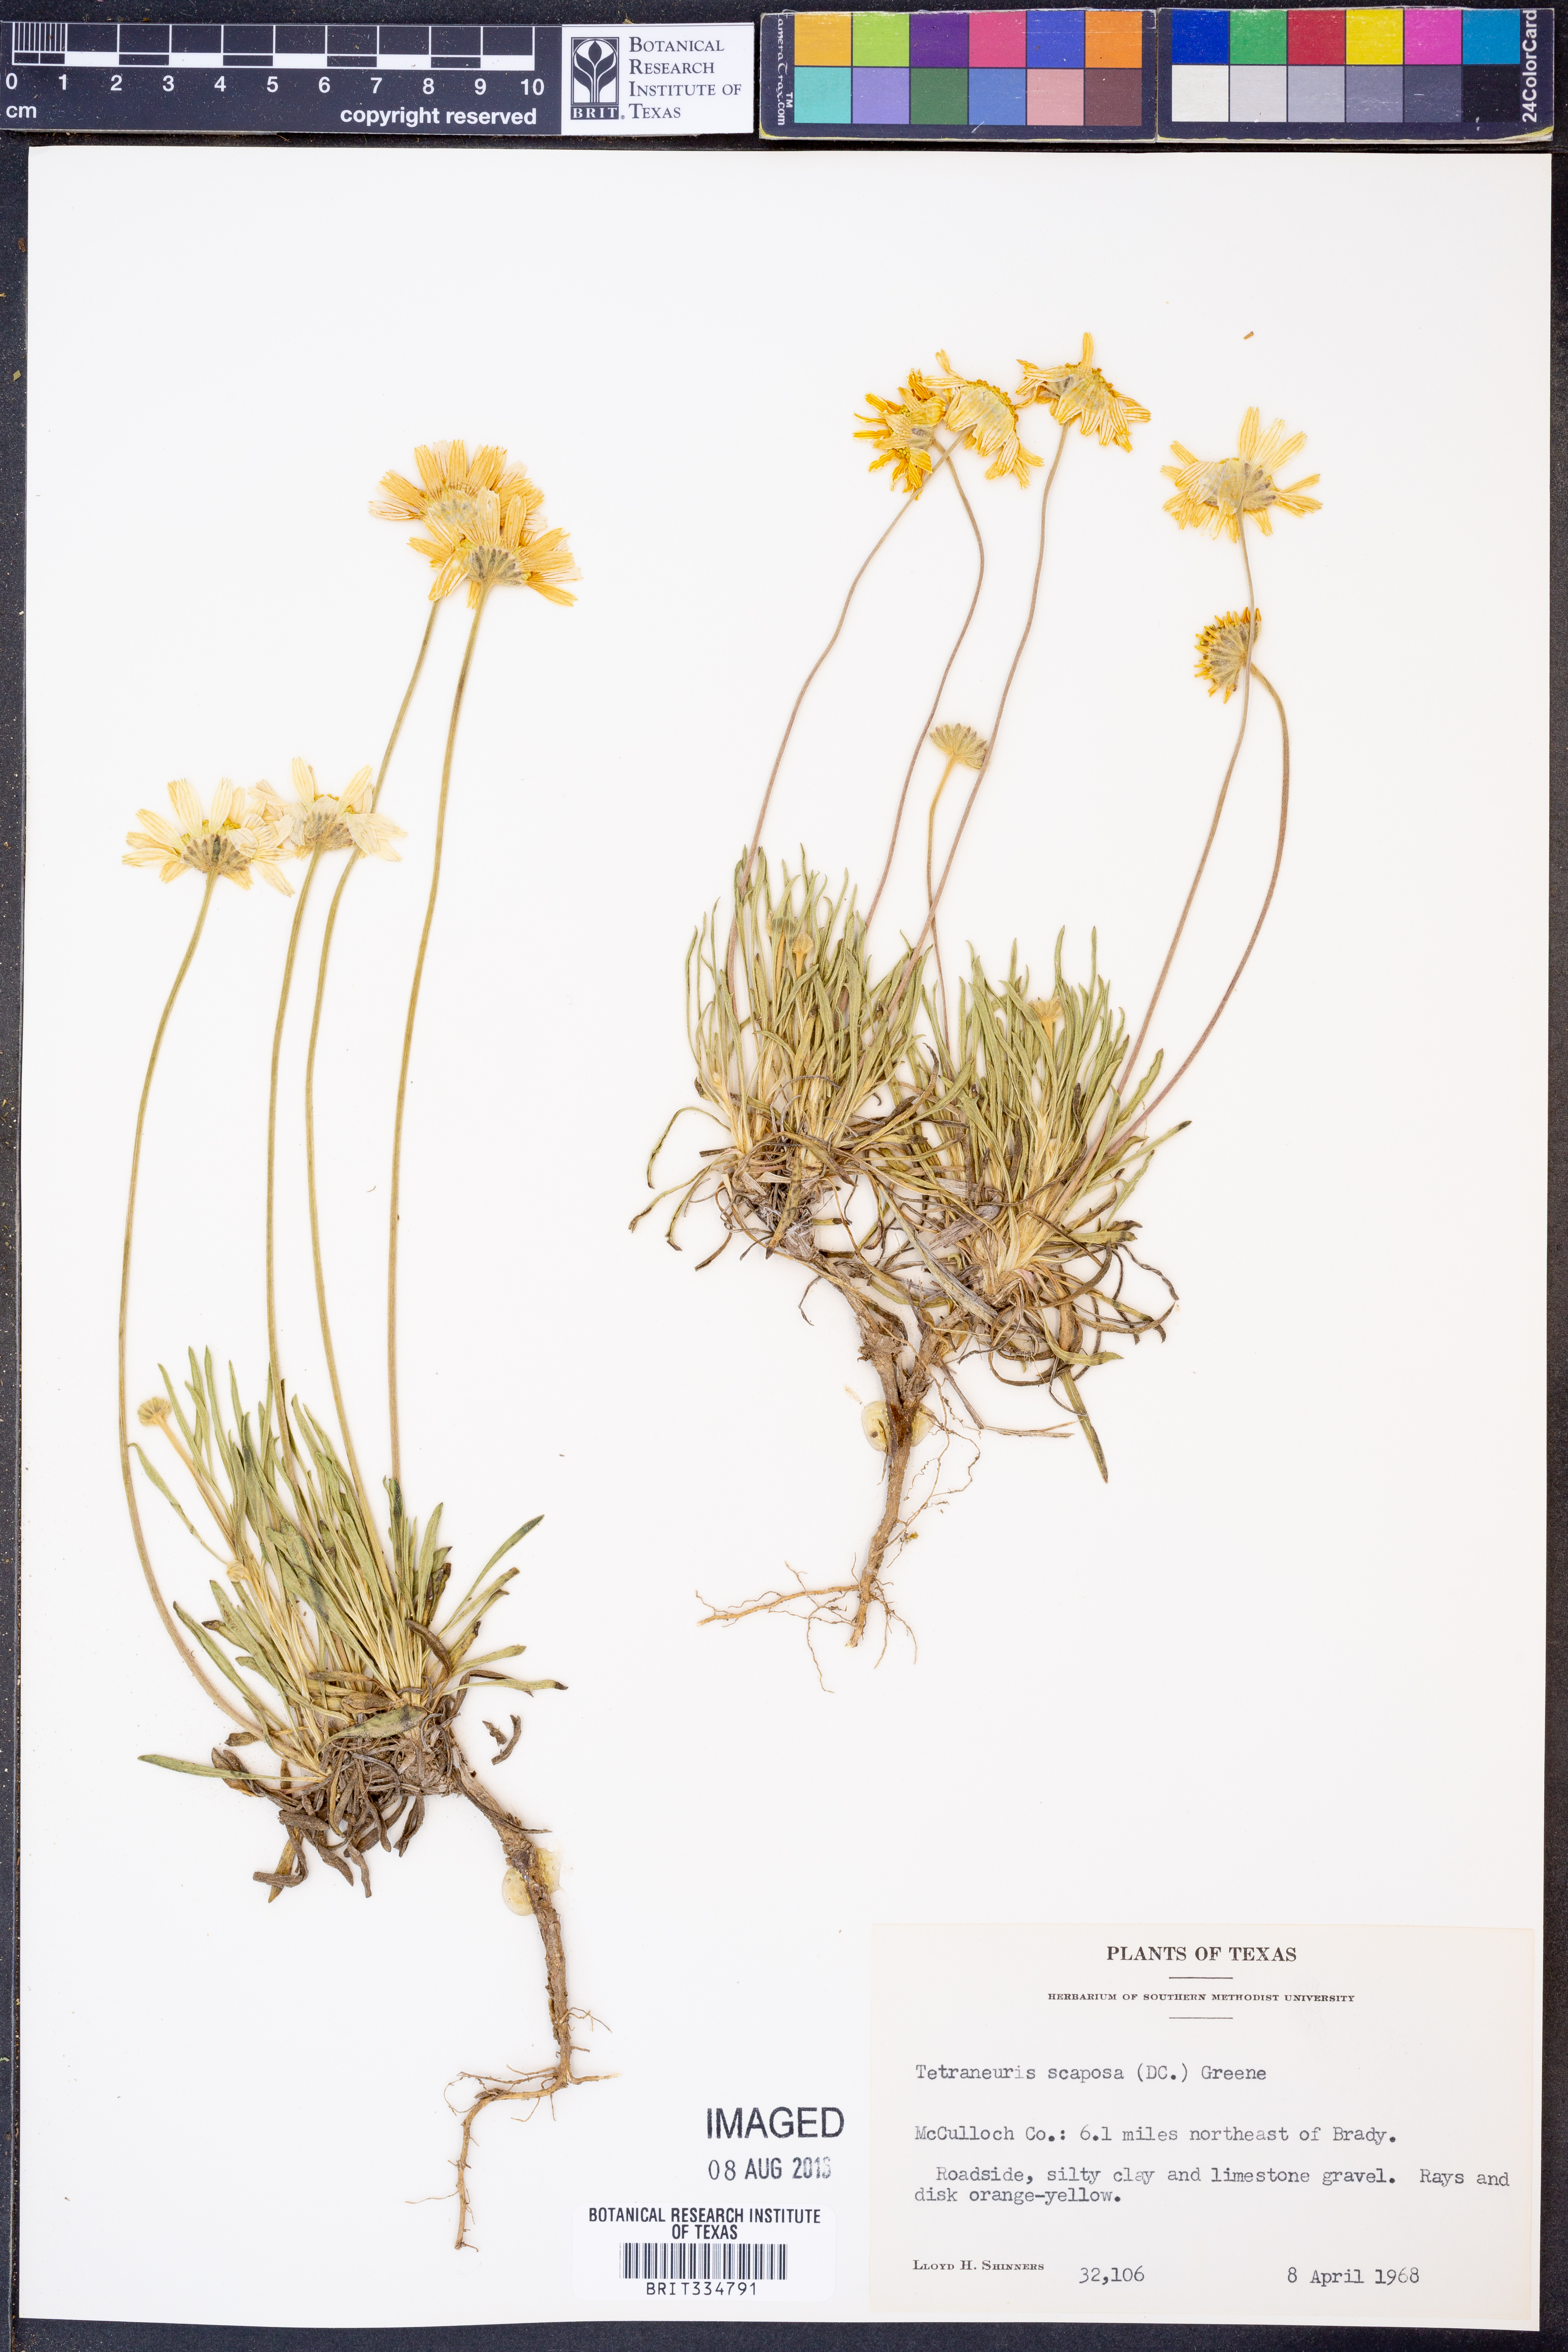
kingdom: Plantae
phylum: Tracheophyta
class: Magnoliopsida
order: Asterales
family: Asteraceae
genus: Tetraneuris
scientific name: Tetraneuris scaposa
